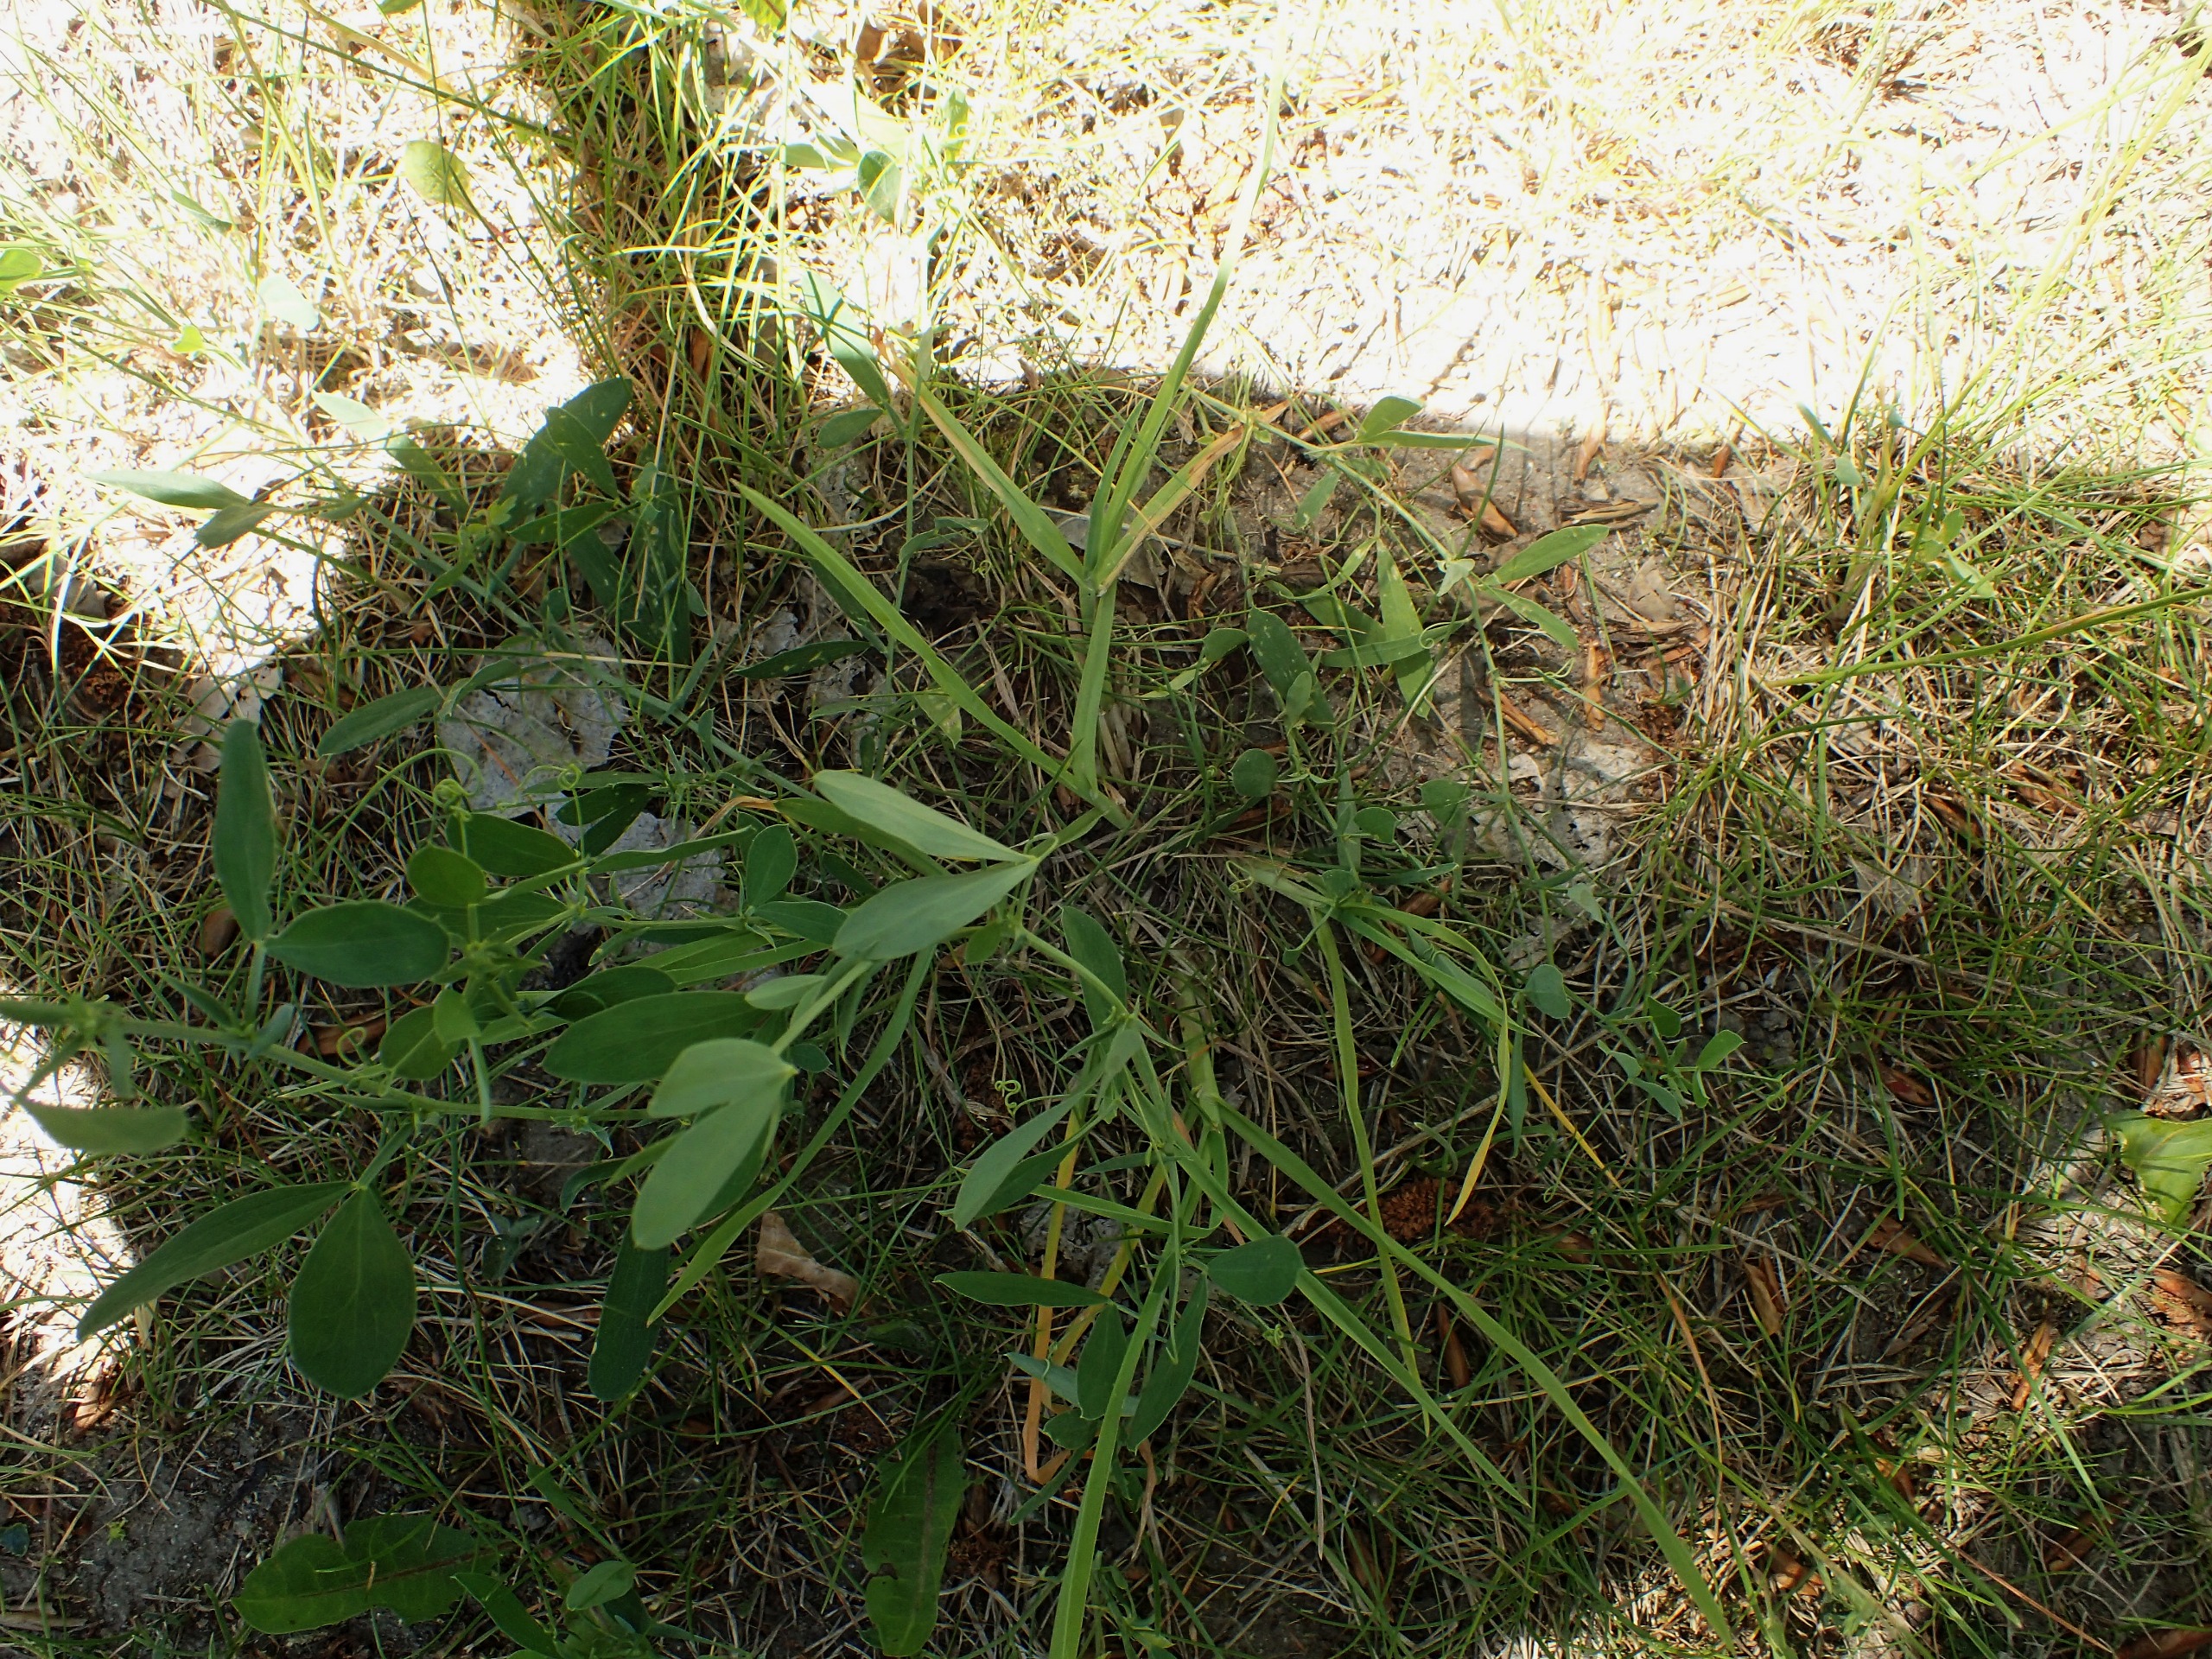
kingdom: Plantae
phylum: Tracheophyta
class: Magnoliopsida
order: Fabales
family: Fabaceae
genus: Lathyrus
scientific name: Lathyrus tuberosus
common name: Knold-fladbælg
